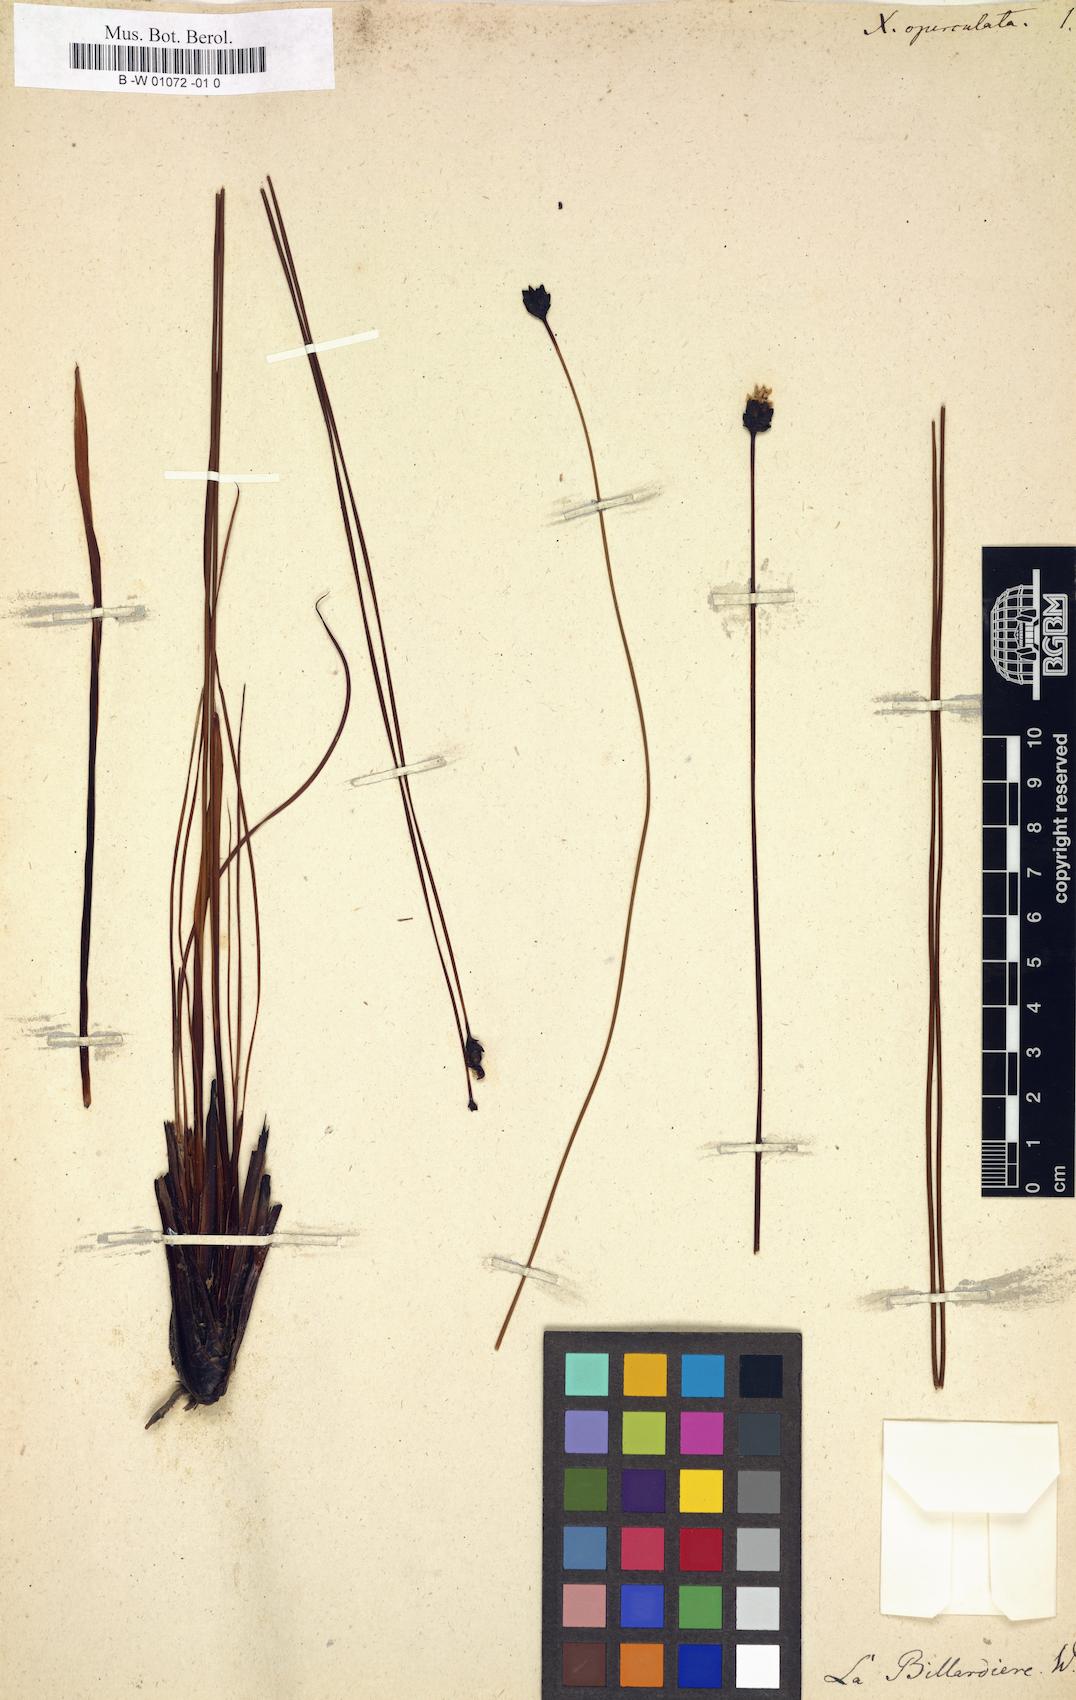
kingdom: Plantae
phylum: Tracheophyta
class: Liliopsida
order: Poales
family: Xyridaceae
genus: Xyris
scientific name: Xyris operculata
